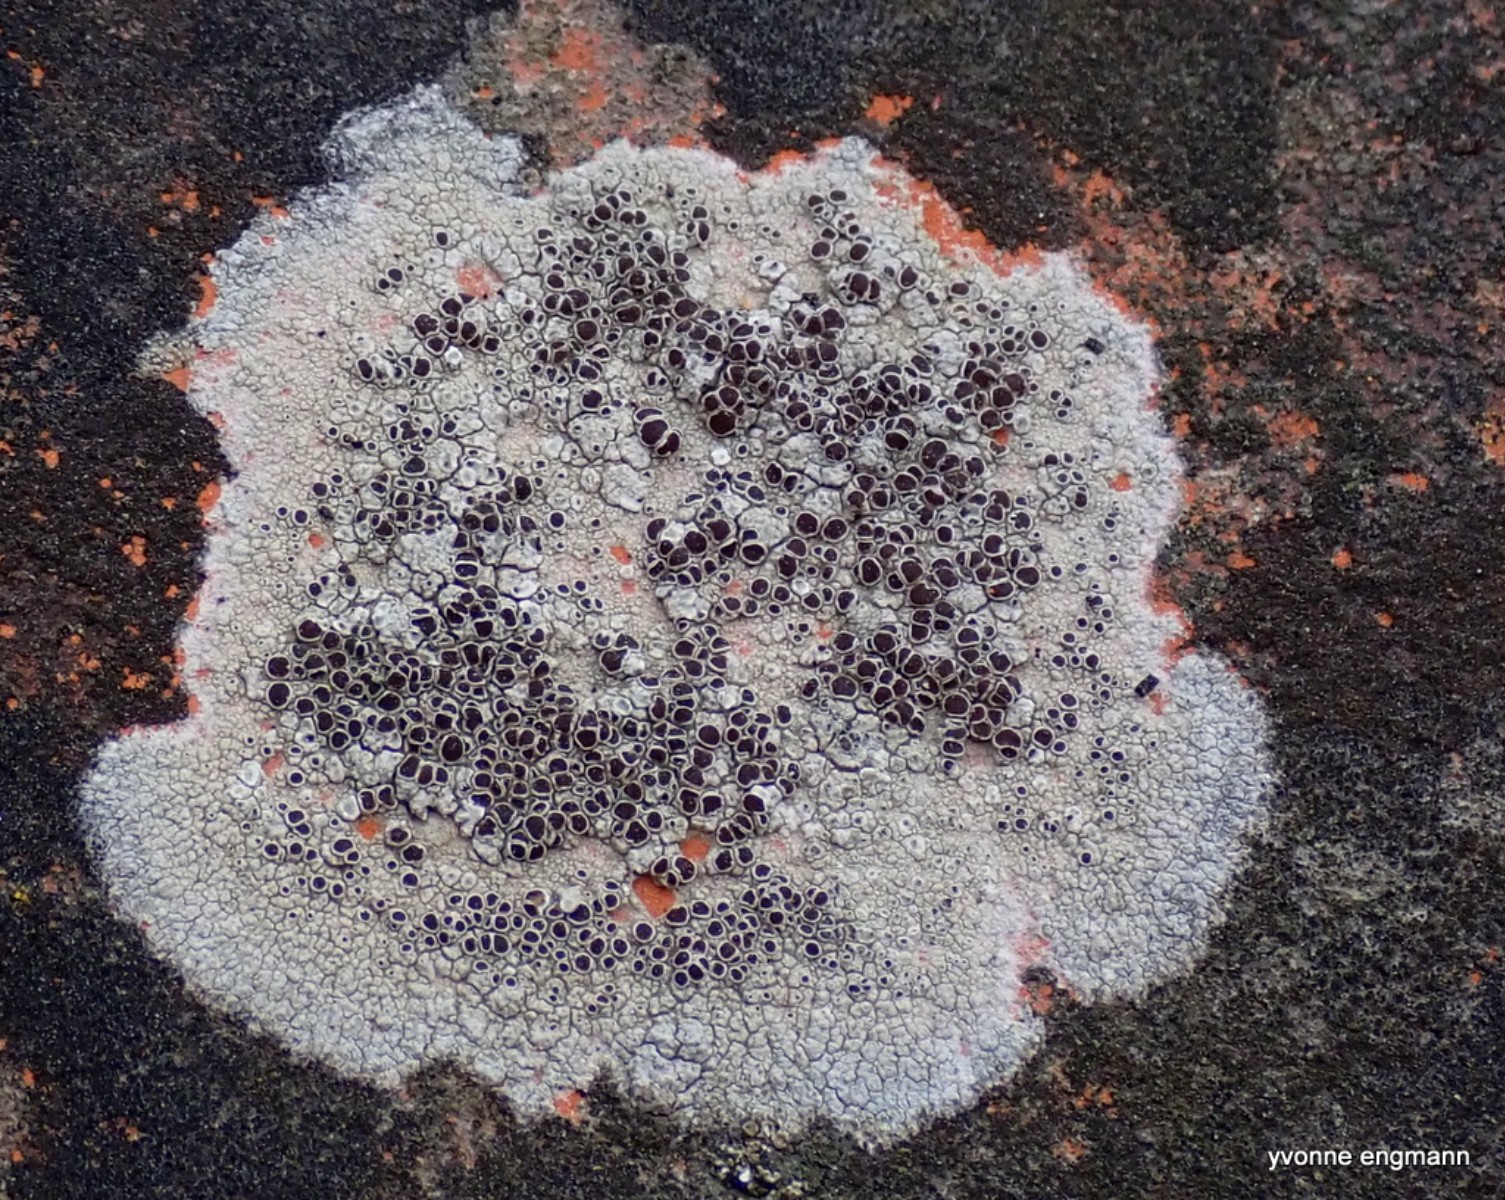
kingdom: Fungi
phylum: Ascomycota
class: Lecanoromycetes
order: Lecanorales
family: Lecanoraceae
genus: Lecanora
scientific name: Lecanora campestris
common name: mur-kantskivelav
